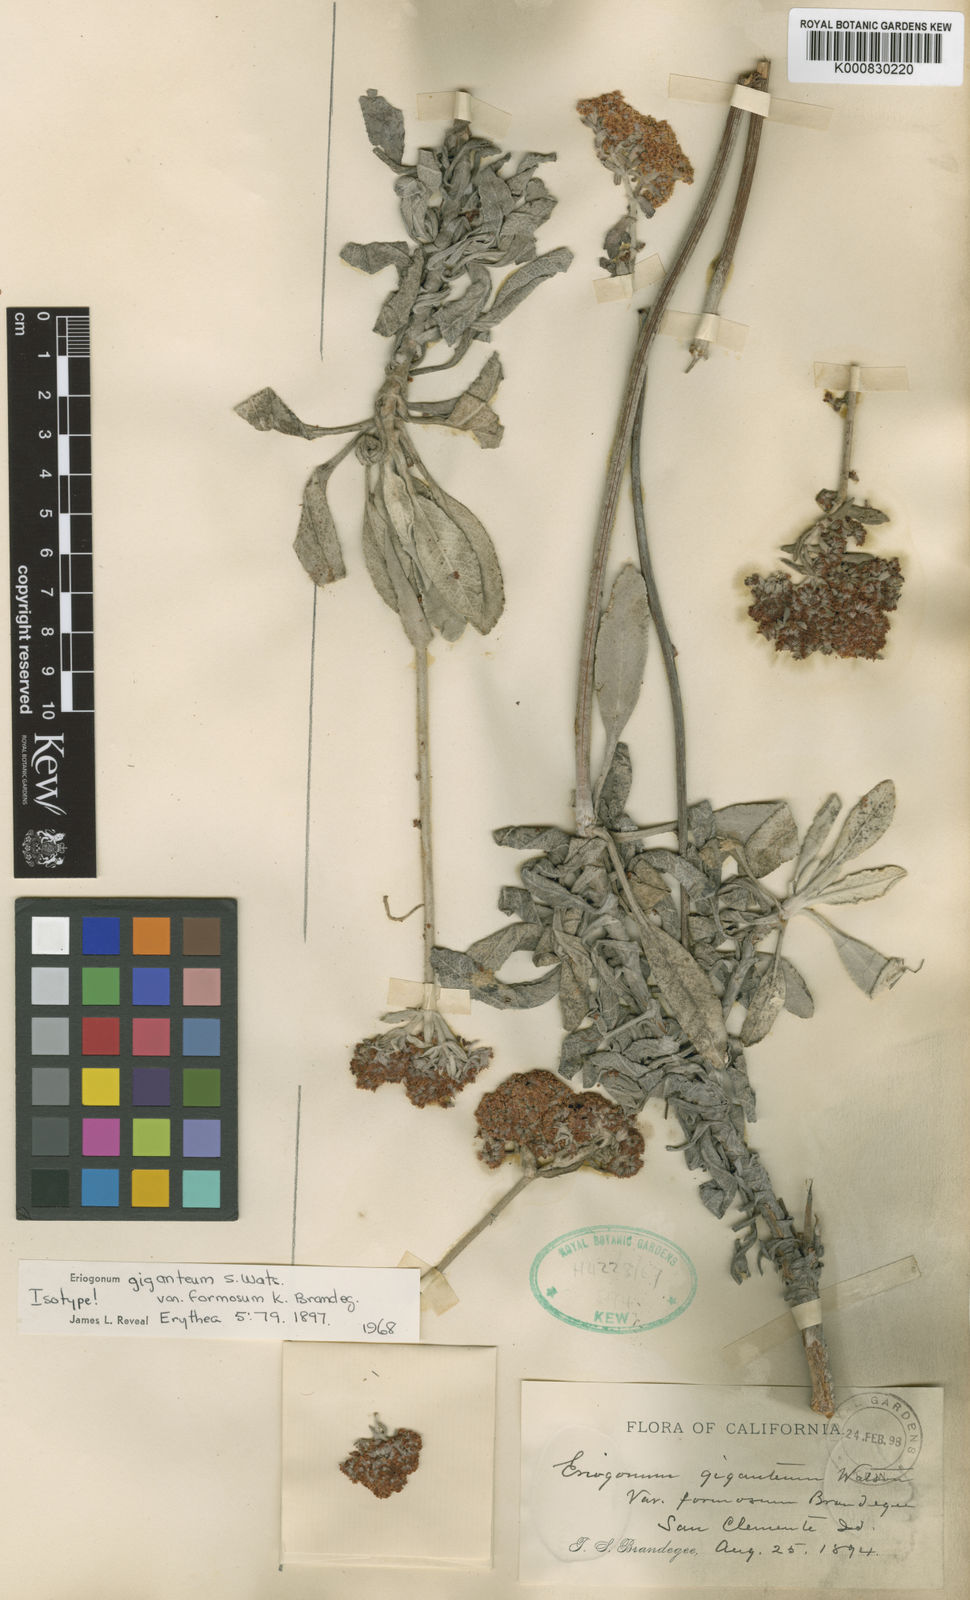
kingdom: Plantae
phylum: Tracheophyta
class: Magnoliopsida
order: Caryophyllales
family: Polygonaceae
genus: Eriogonum
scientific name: Eriogonum giganteum
